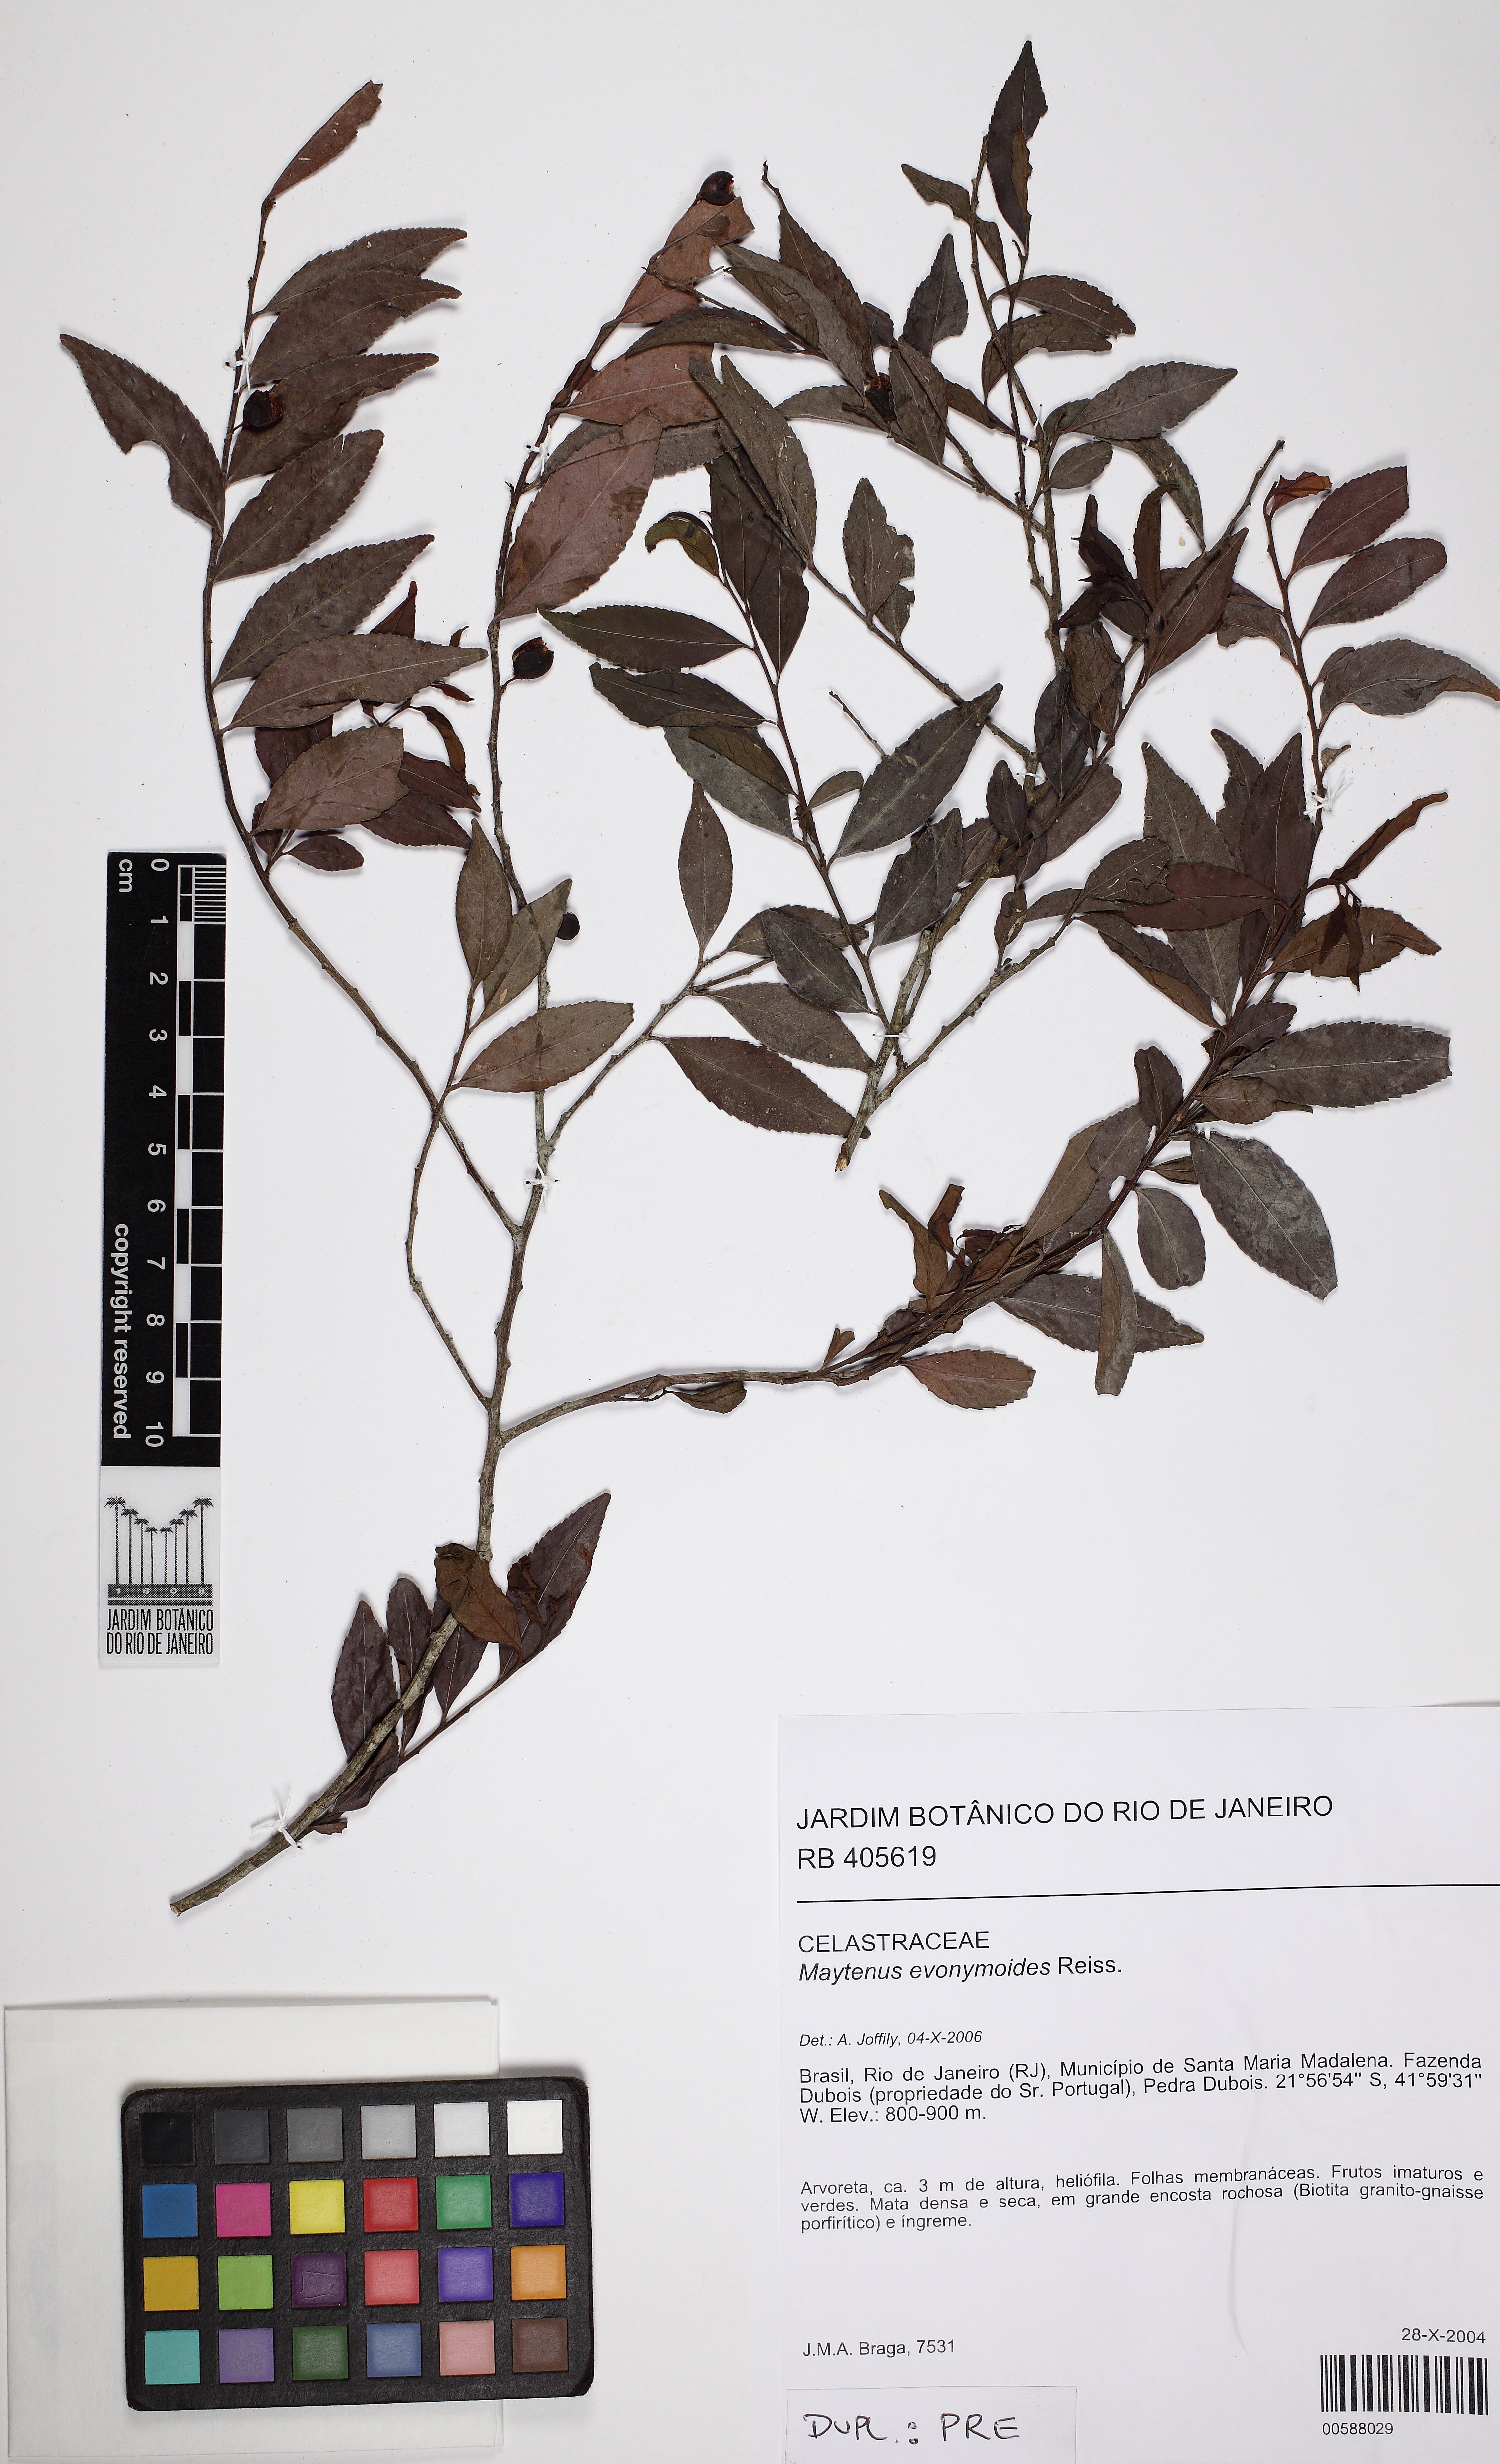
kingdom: Plantae
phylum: Tracheophyta
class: Magnoliopsida
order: Celastrales
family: Celastraceae
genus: Monteverdia
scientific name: Monteverdia evonymoides
